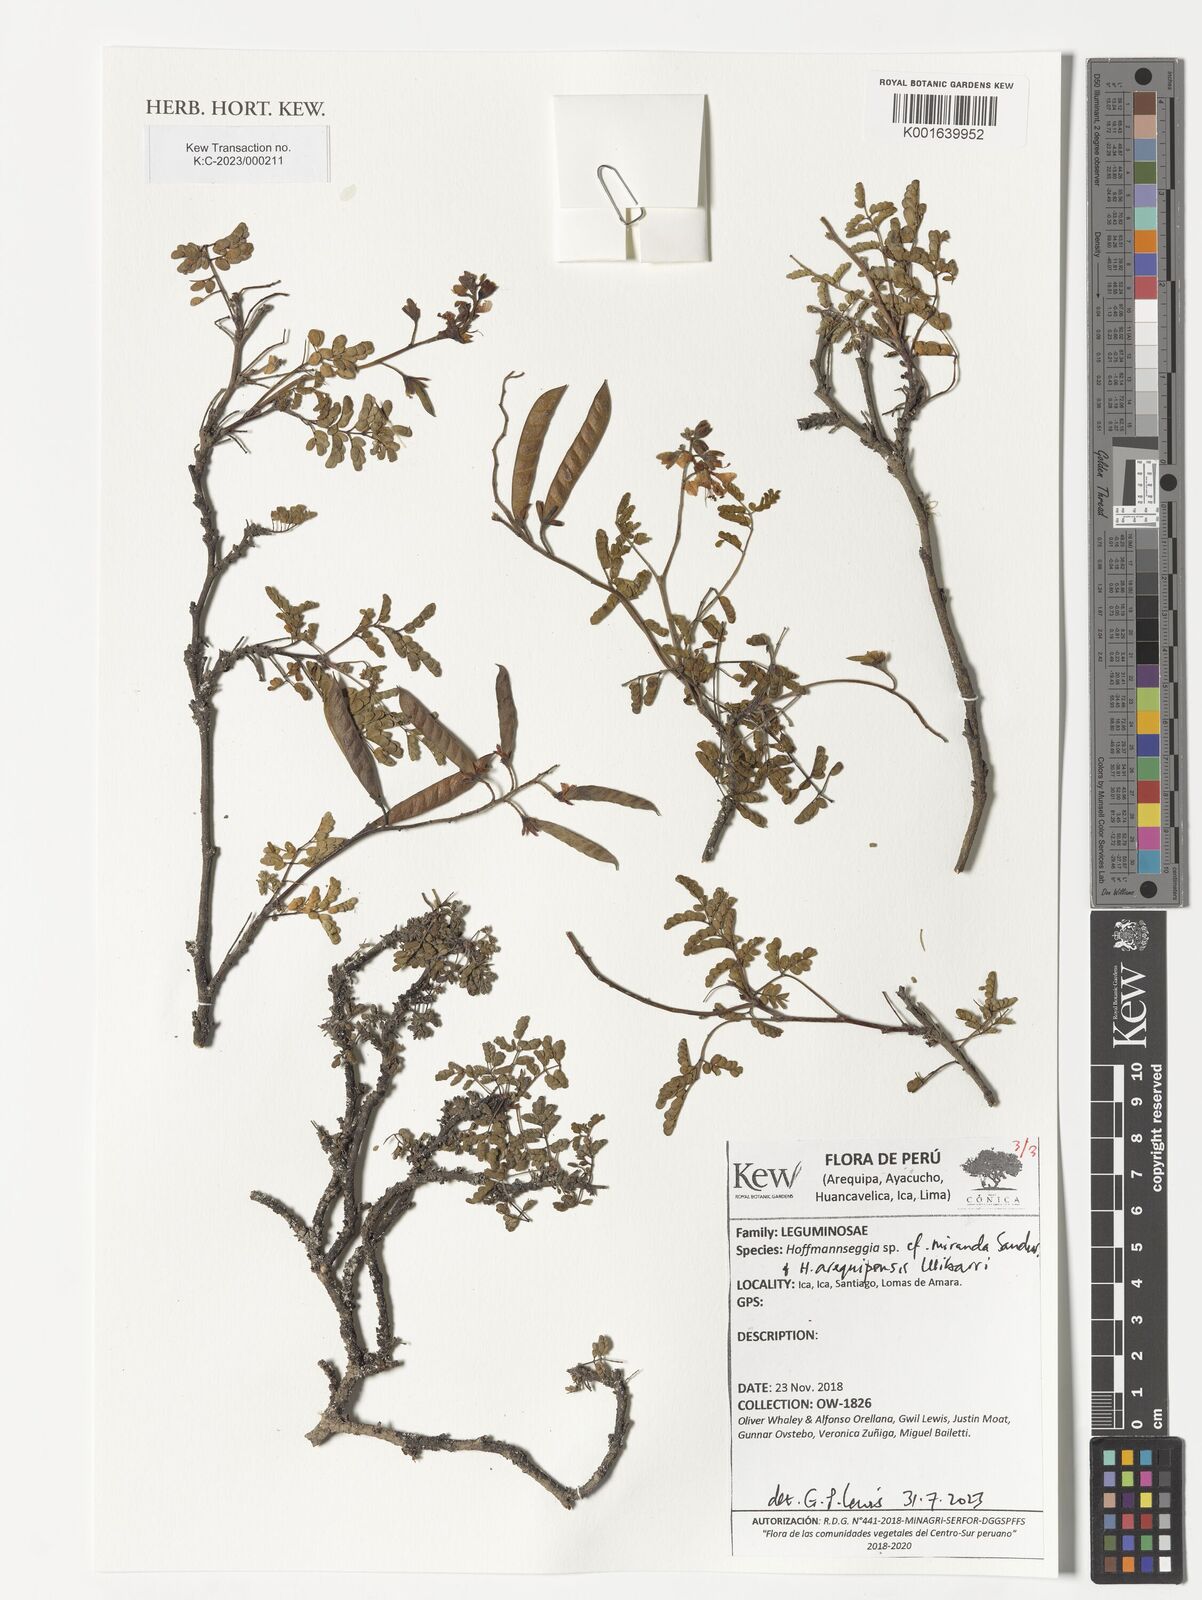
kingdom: Plantae
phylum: Tracheophyta
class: Magnoliopsida
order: Fabales
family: Fabaceae
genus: Hoffmannseggia
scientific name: Hoffmannseggia miranda
